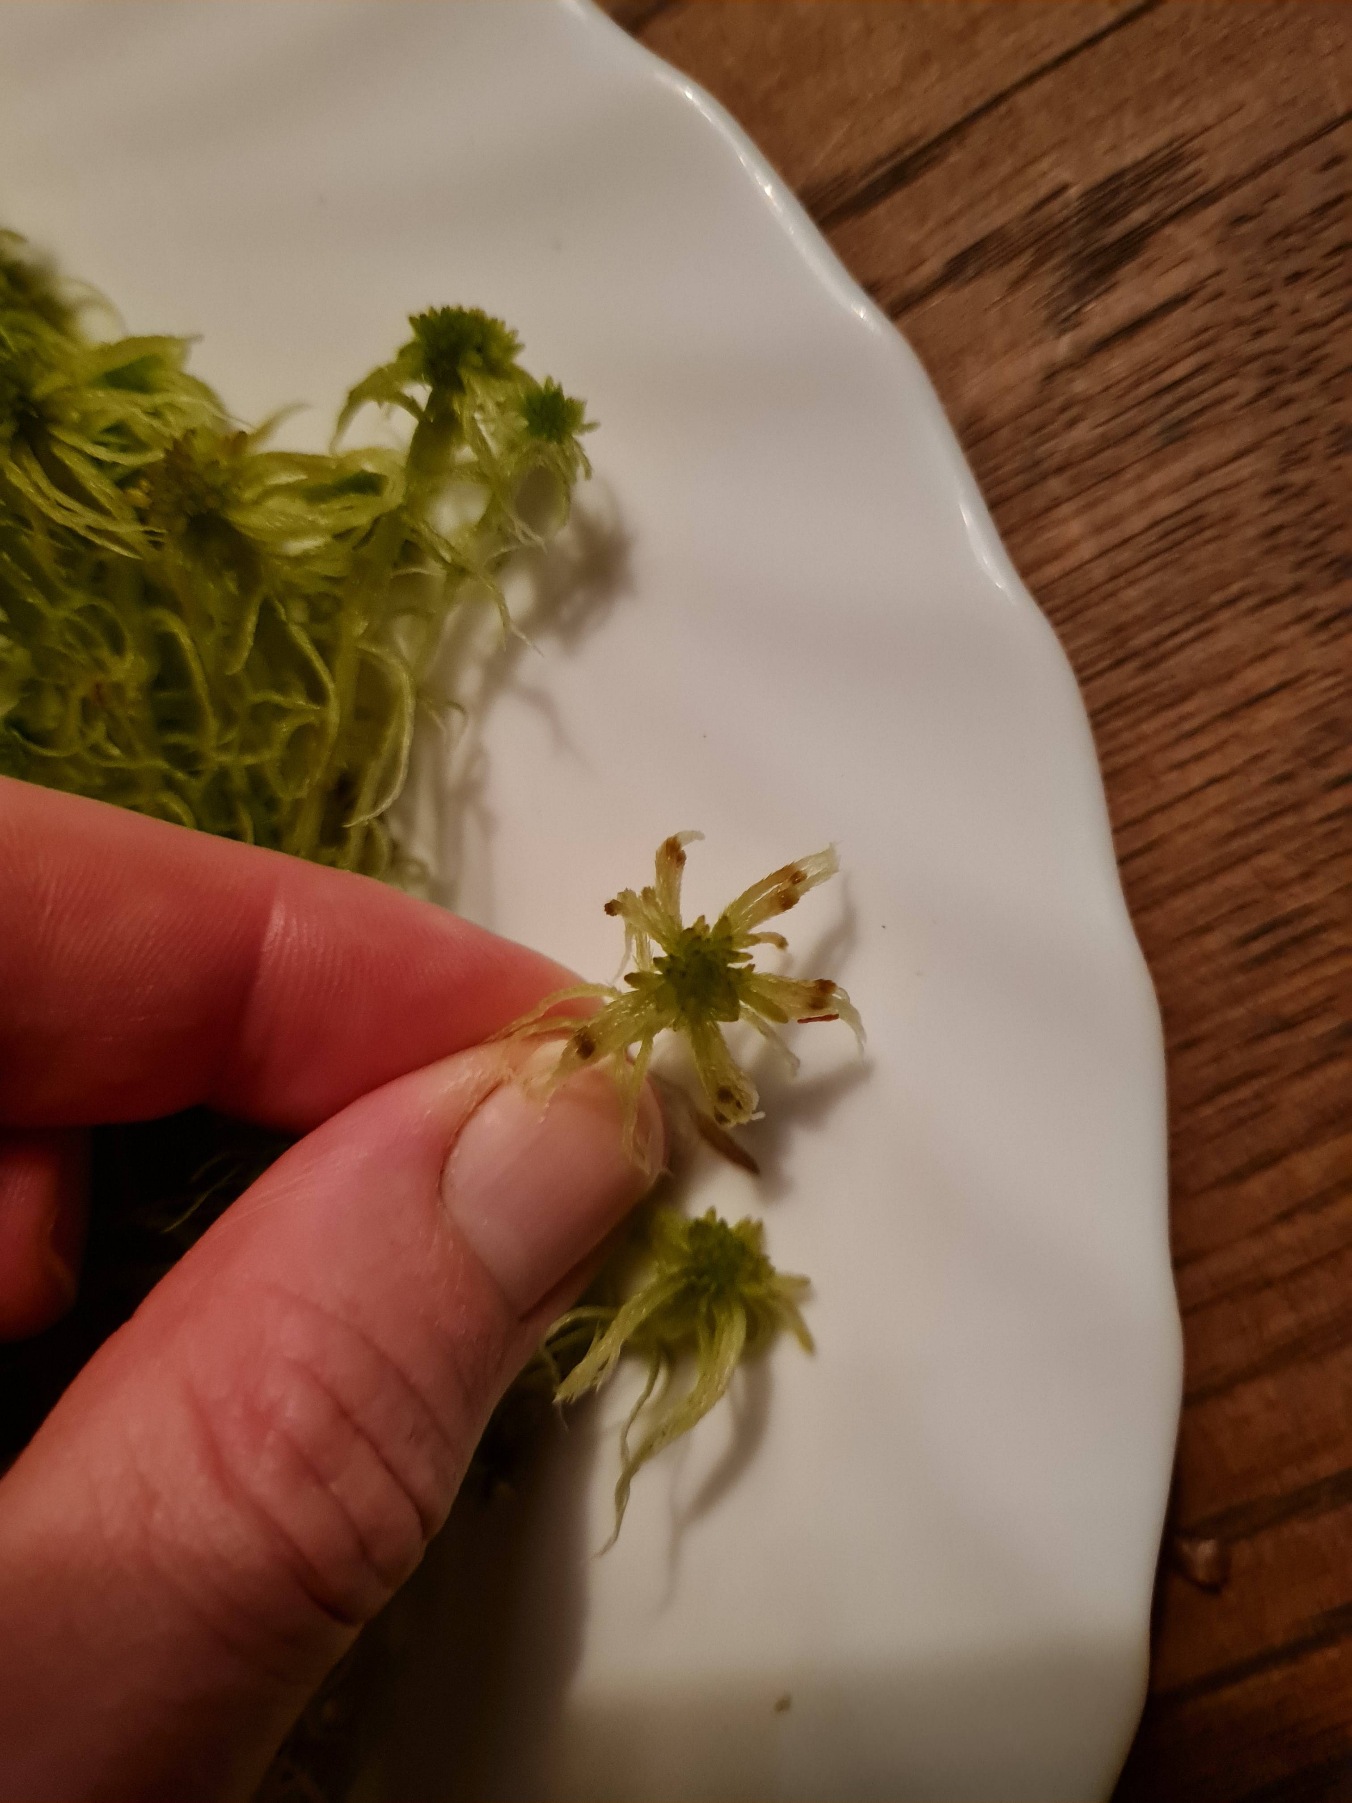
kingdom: Plantae
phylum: Bryophyta
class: Sphagnopsida
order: Sphagnales
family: Sphagnaceae
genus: Sphagnum
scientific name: Sphagnum fallax
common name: Brodspids-tørvemos
